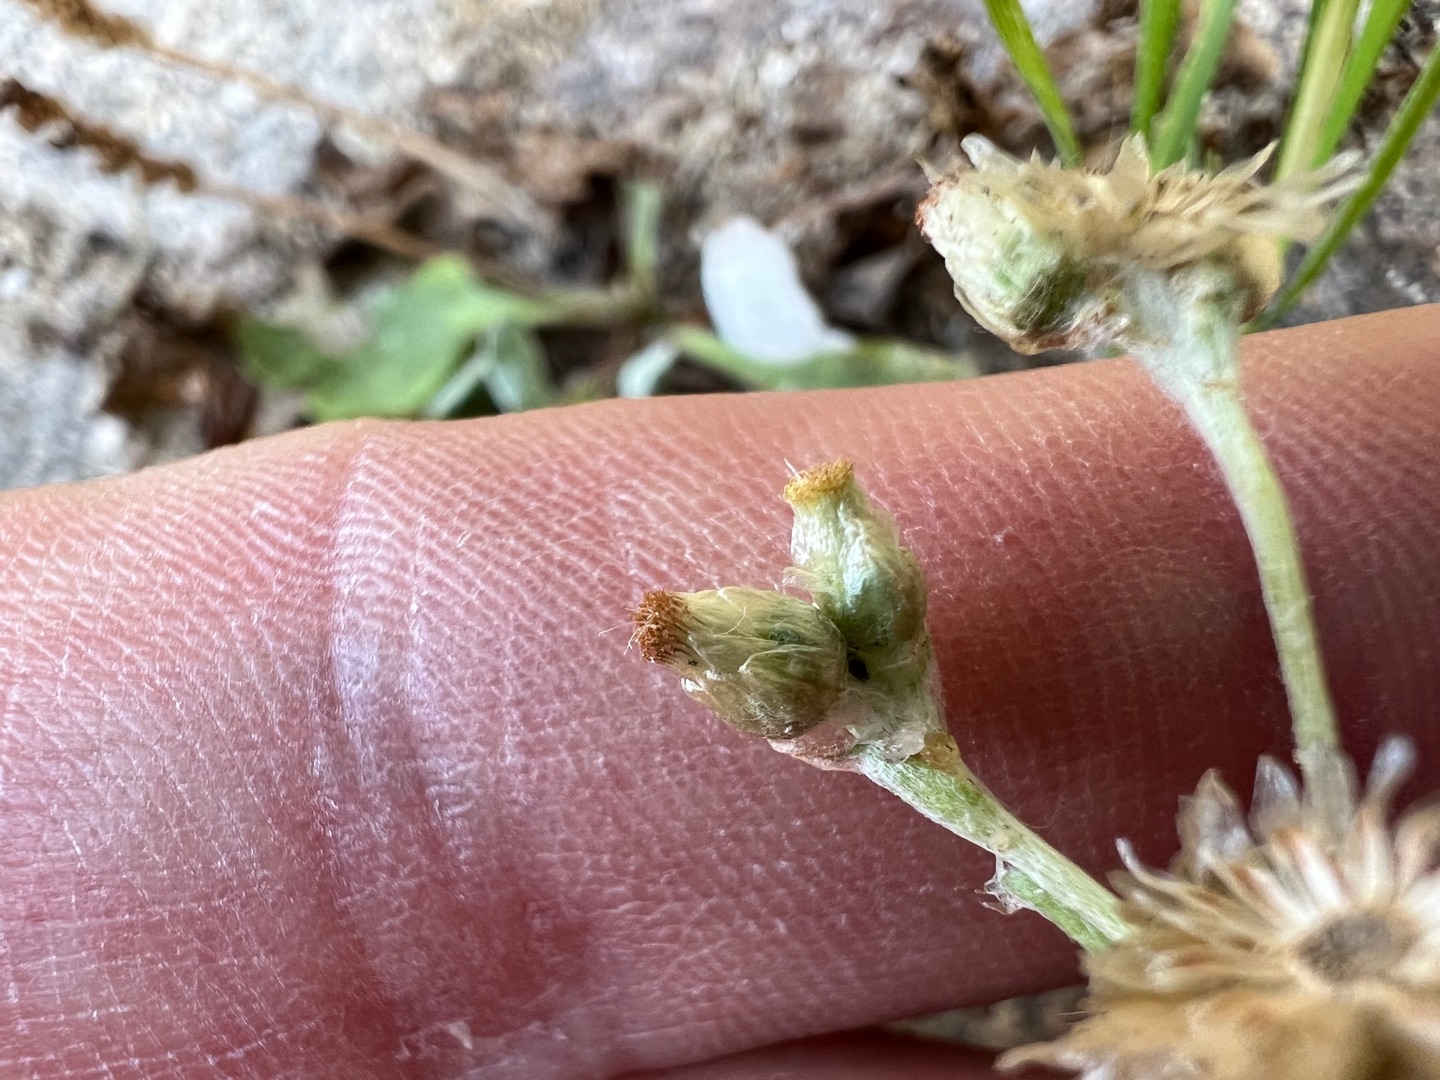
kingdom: Plantae
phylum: Tracheophyta
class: Magnoliopsida
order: Asterales
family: Asteraceae
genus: Helichrysum
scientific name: Helichrysum luteoalbum
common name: Gulhvid evighedsblomst
